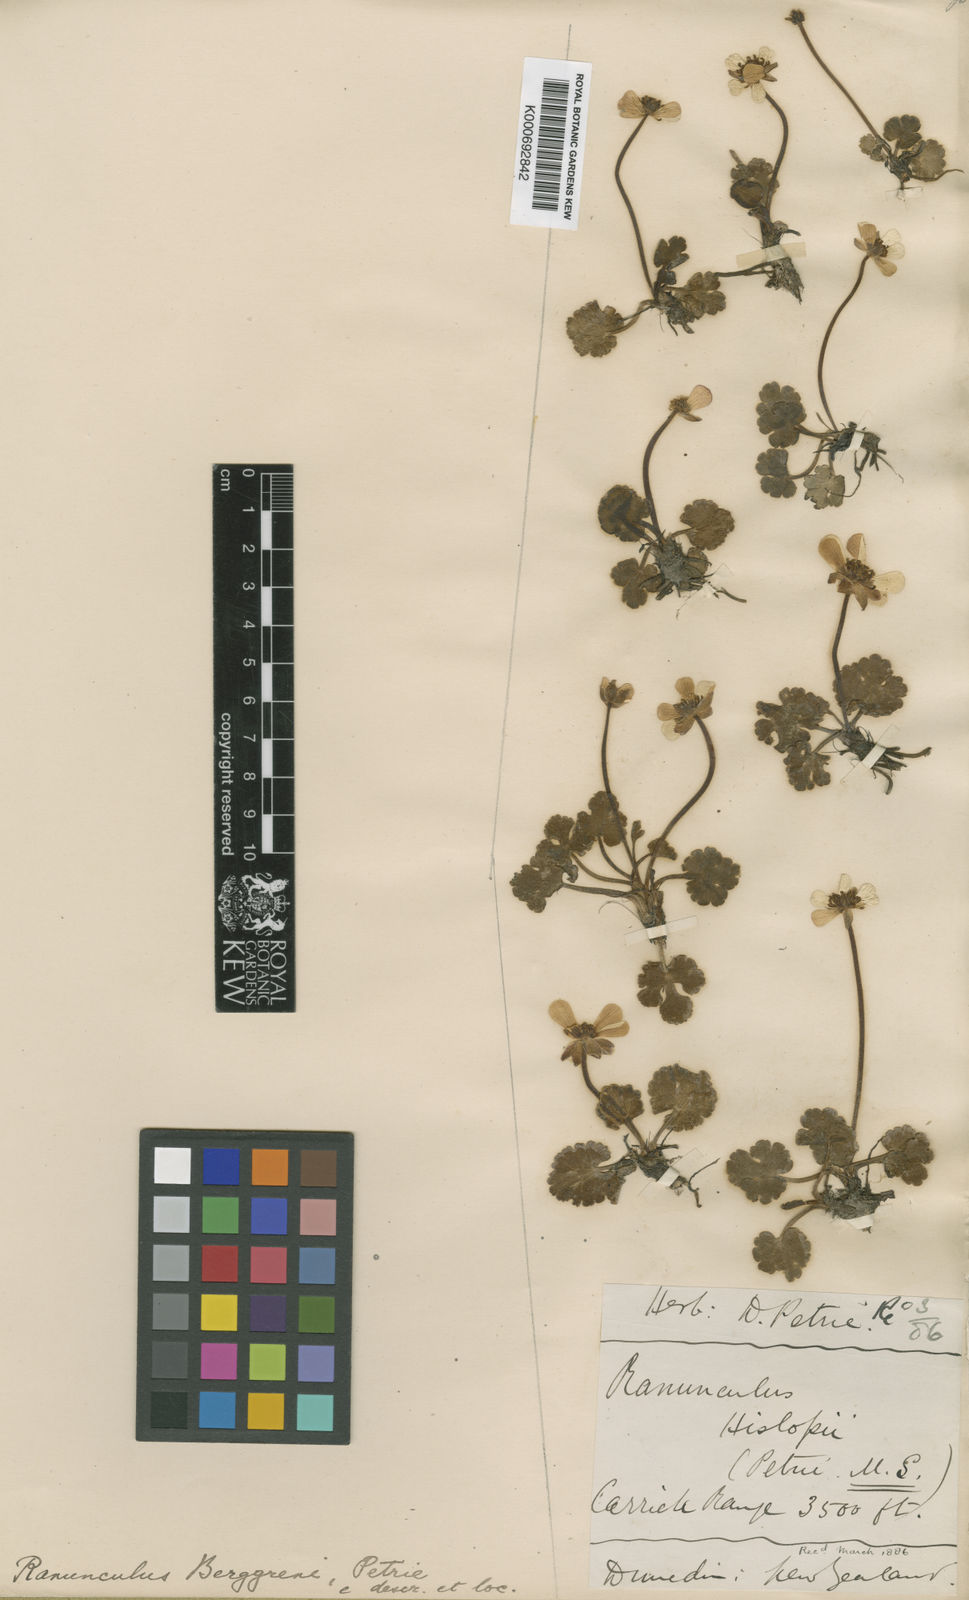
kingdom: Plantae
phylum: Tracheophyta
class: Magnoliopsida
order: Ranunculales
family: Ranunculaceae
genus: Ranunculus
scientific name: Ranunculus enysii
